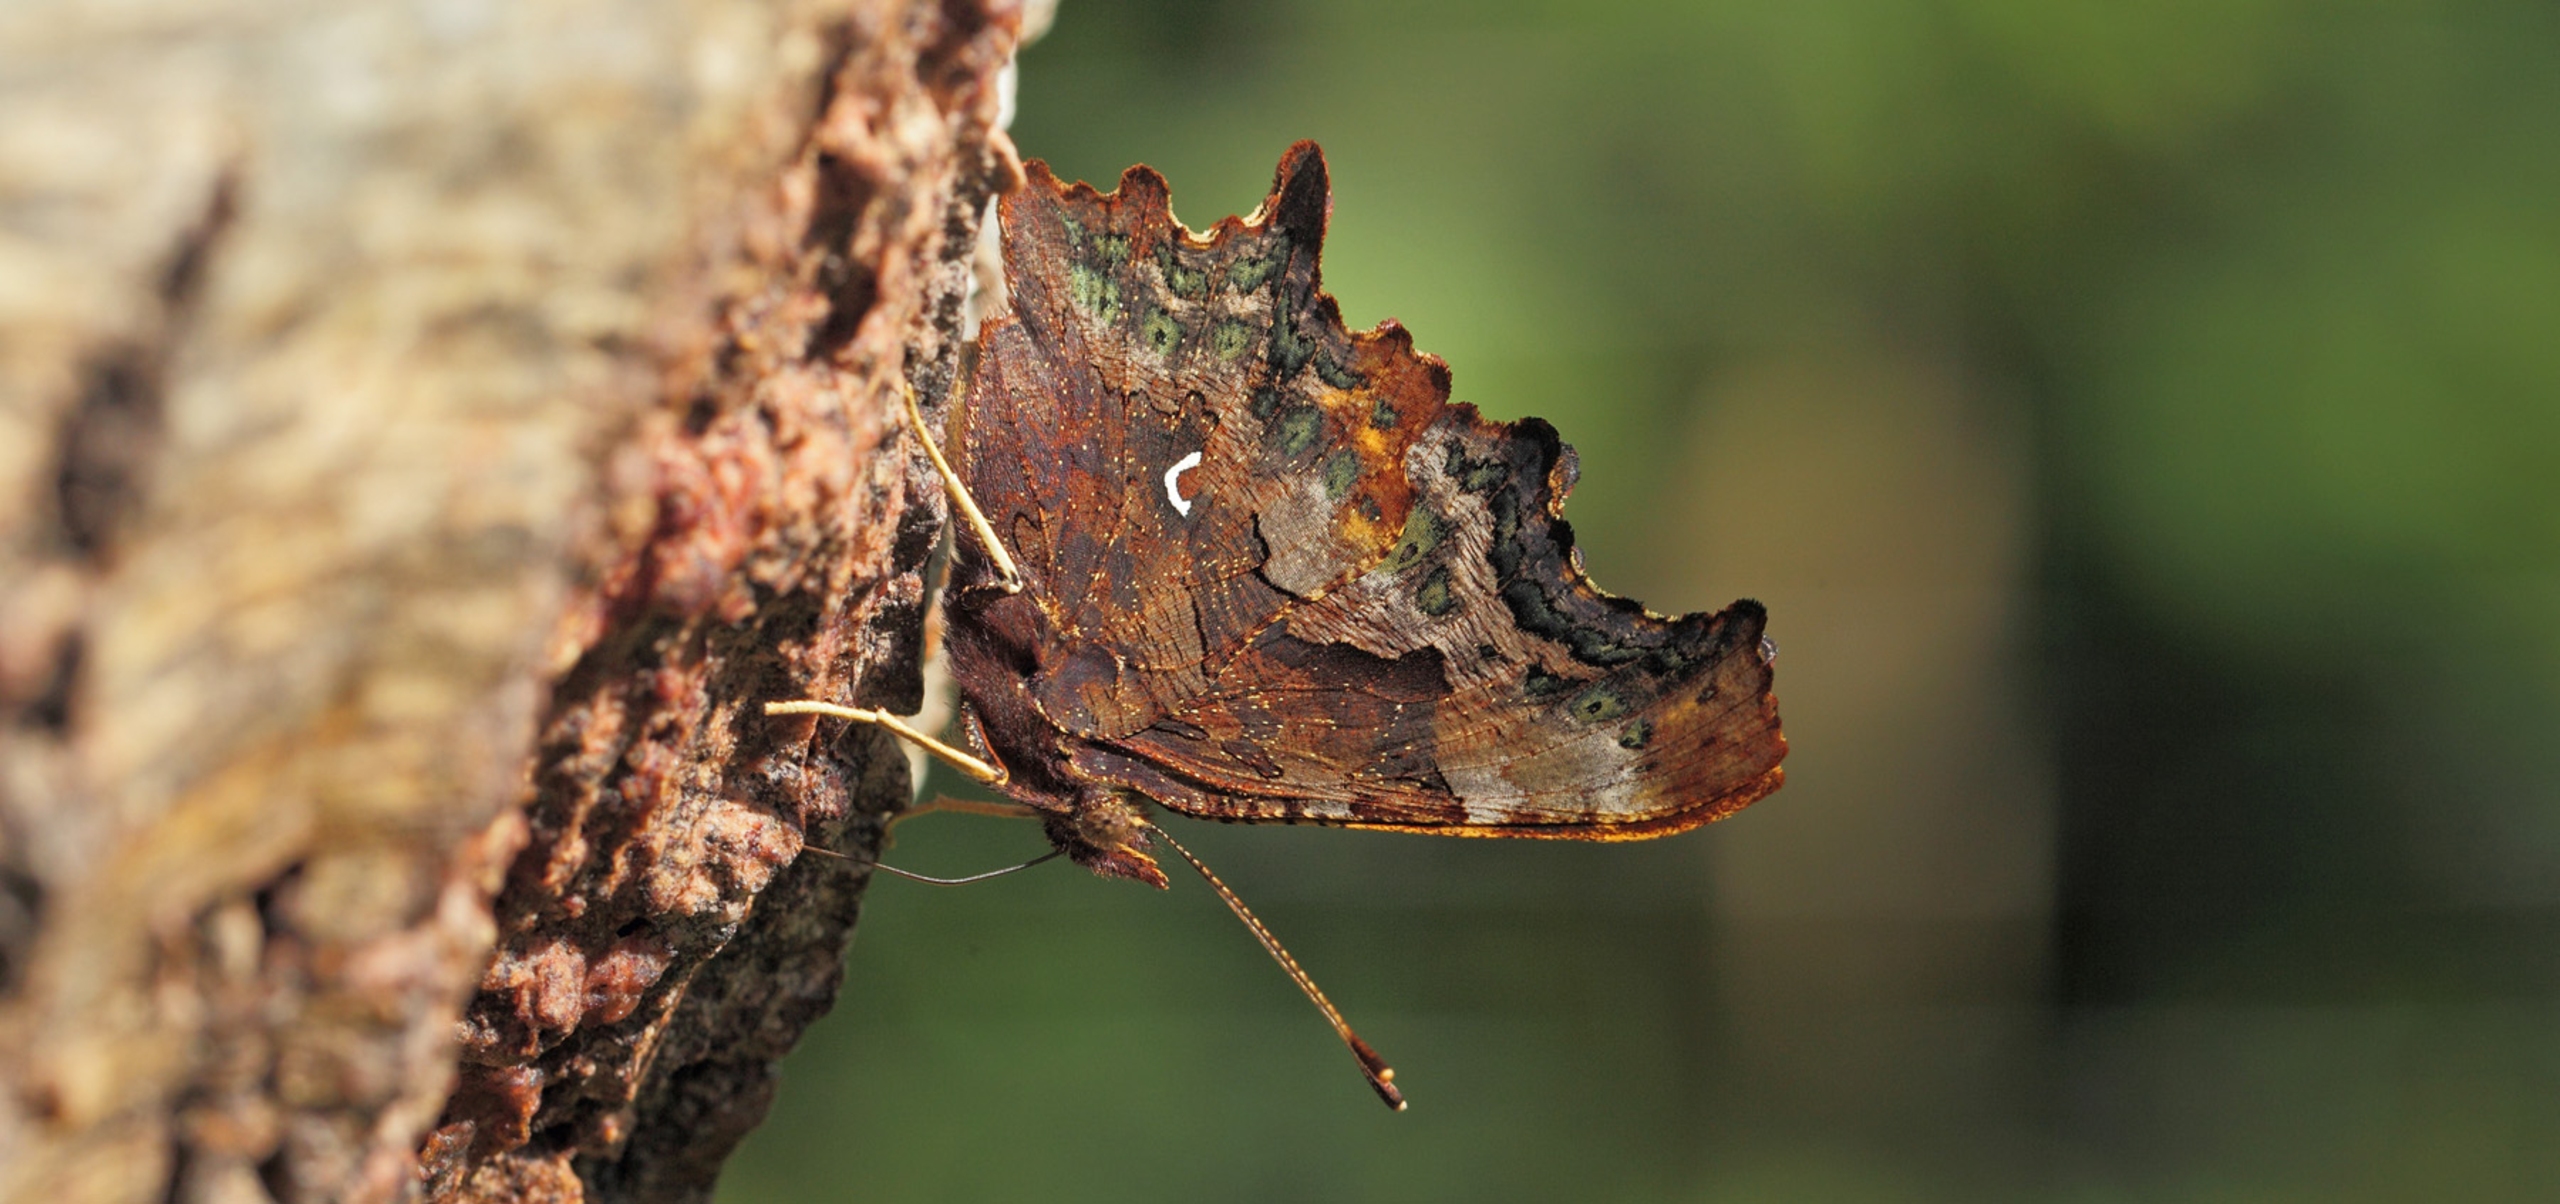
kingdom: Animalia
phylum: Arthropoda
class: Insecta
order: Lepidoptera
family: Nymphalidae
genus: Polygonia
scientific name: Polygonia c-album
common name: Det hvide C
